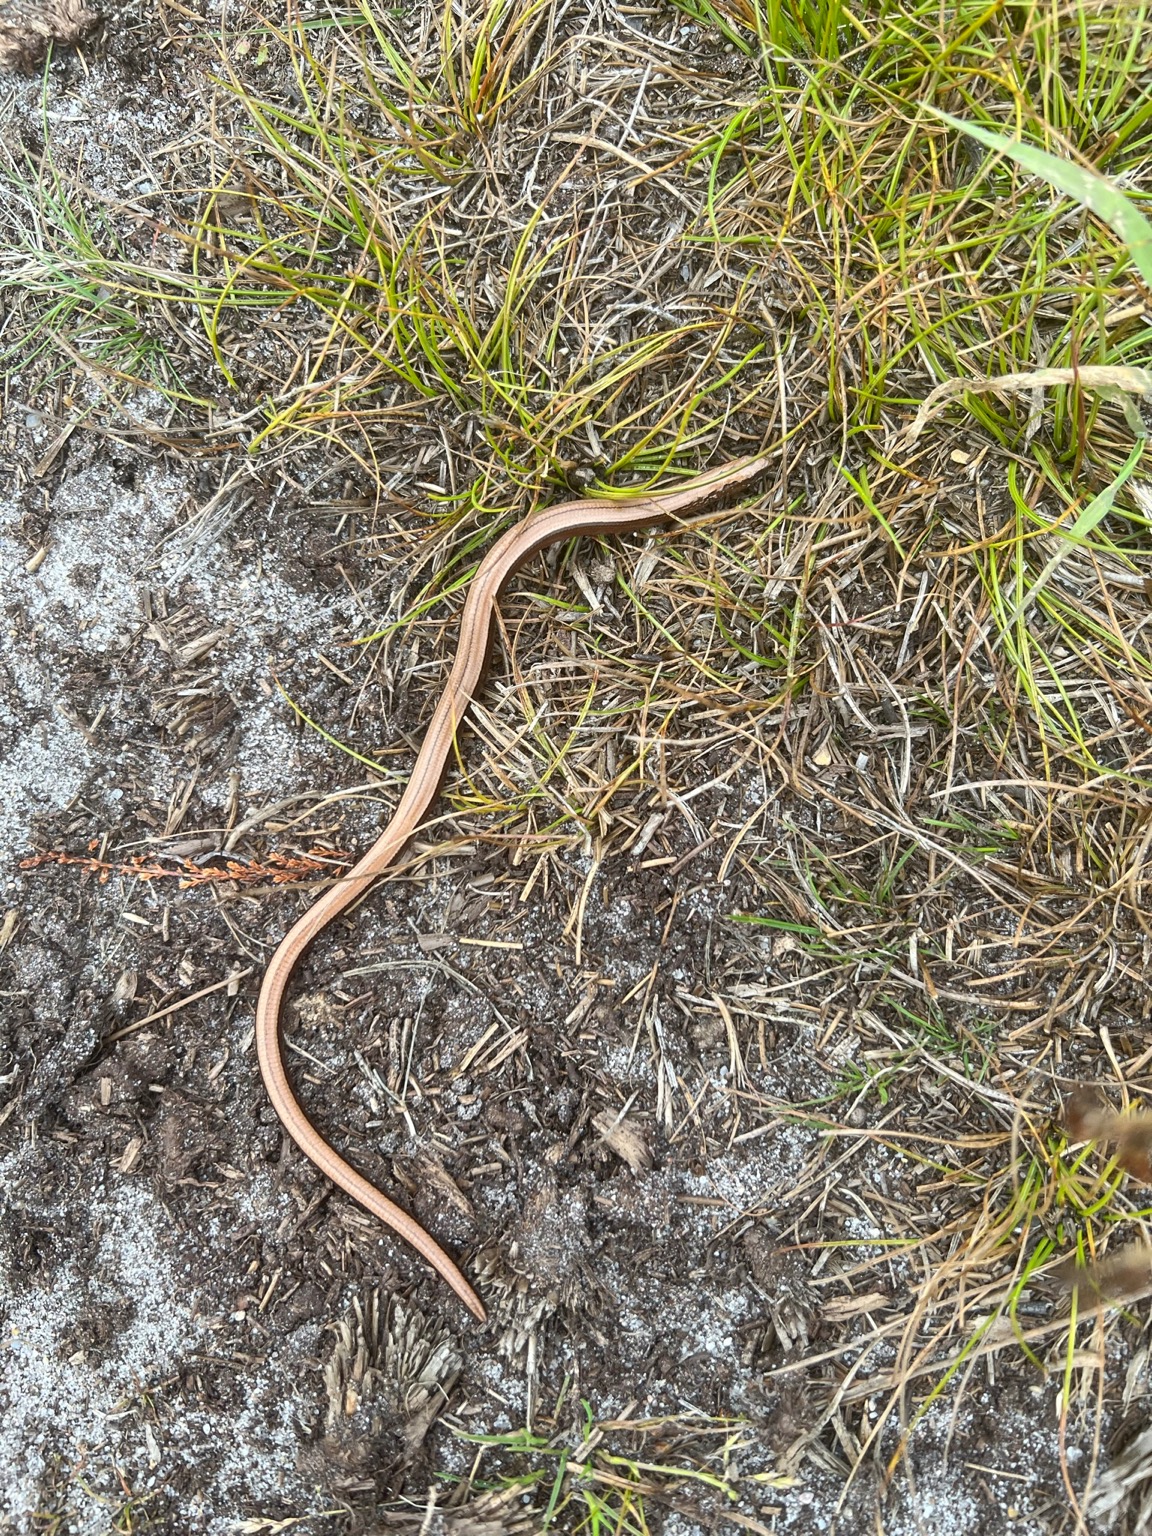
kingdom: Animalia
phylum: Chordata
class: Squamata
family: Anguidae
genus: Anguis
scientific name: Anguis fragilis
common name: Stålorm
